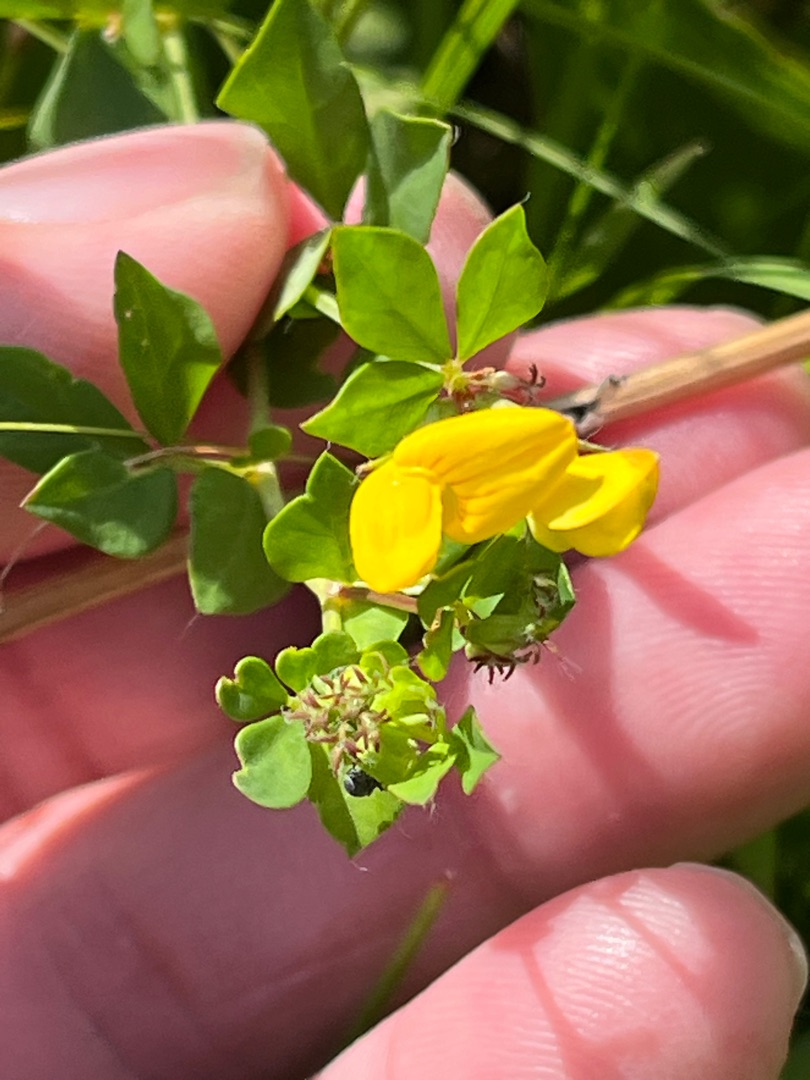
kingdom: Plantae
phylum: Tracheophyta
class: Magnoliopsida
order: Fabales
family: Fabaceae
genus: Lotus
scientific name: Lotus corniculatus
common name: Almindelig kællingetand
